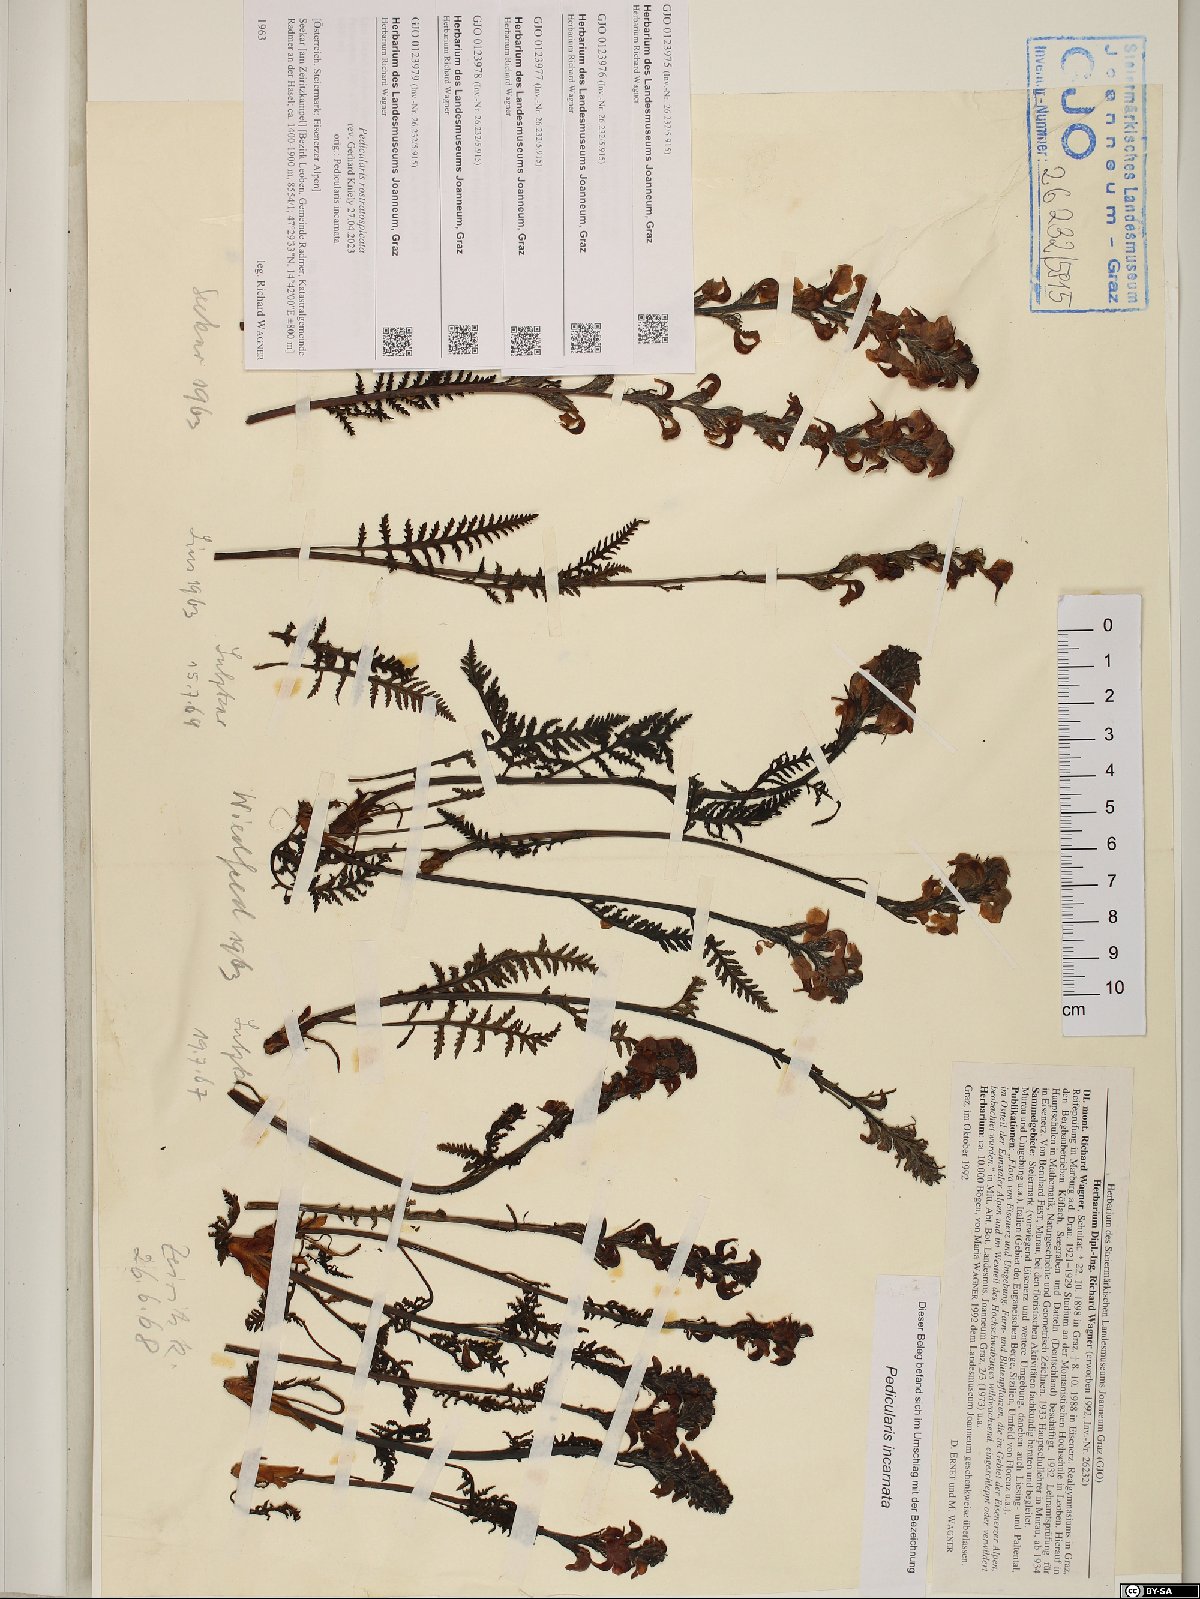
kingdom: Plantae
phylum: Tracheophyta
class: Magnoliopsida
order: Lamiales
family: Orobanchaceae
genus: Pedicularis
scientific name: Pedicularis rostratospicata
